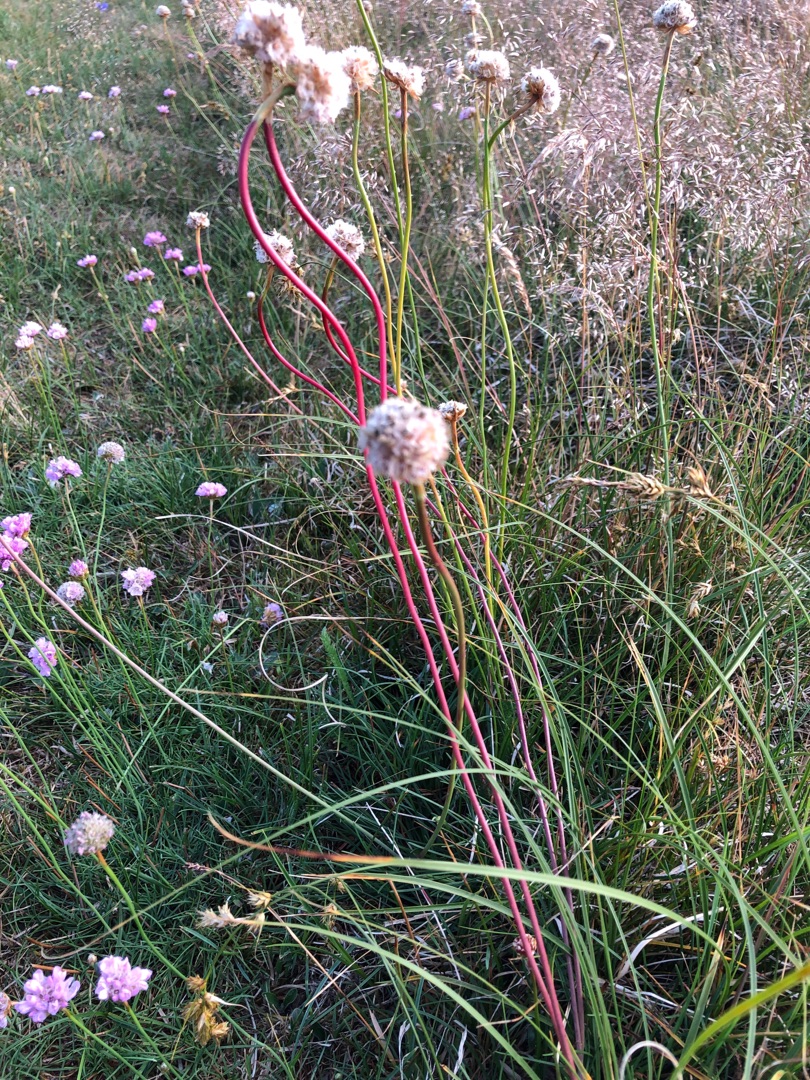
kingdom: Plantae
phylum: Tracheophyta
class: Magnoliopsida
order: Caryophyllales
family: Plumbaginaceae
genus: Armeria
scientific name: Armeria maritima
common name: Engelskgræs
